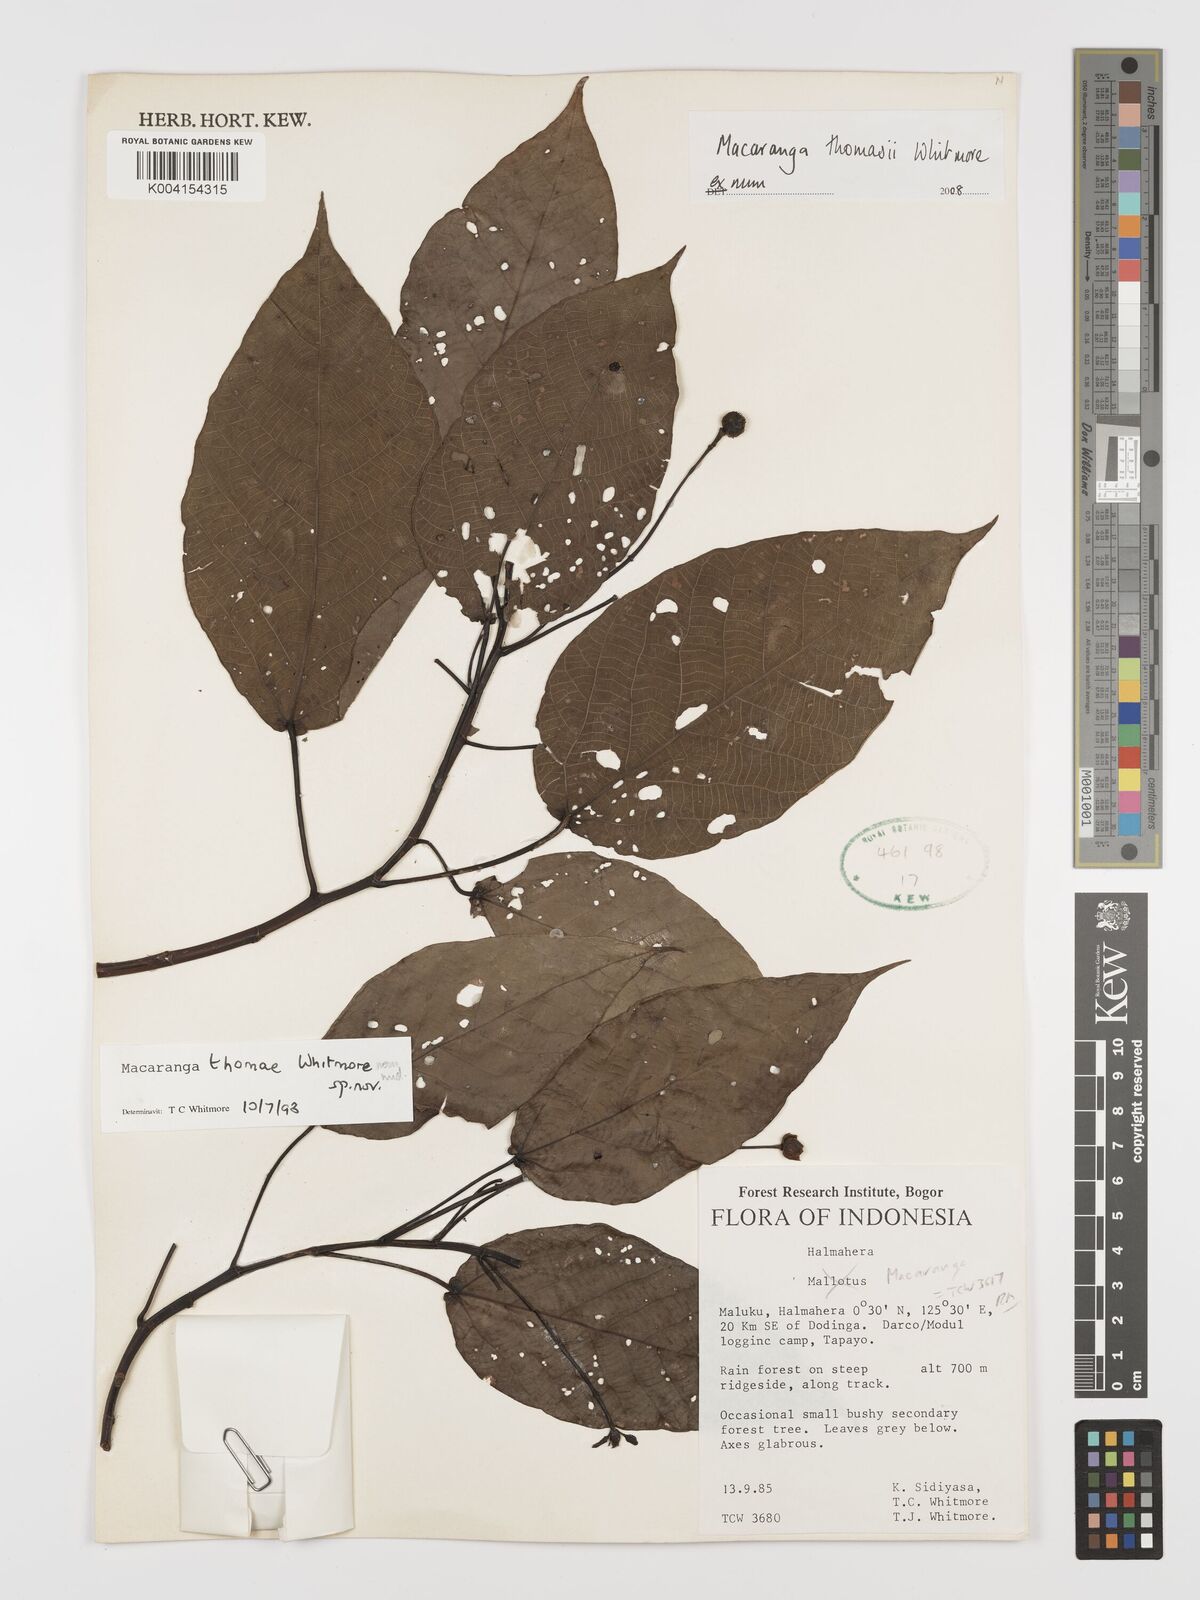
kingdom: Plantae
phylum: Tracheophyta
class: Magnoliopsida
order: Malpighiales
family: Euphorbiaceae
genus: Macaranga
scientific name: Macaranga thomasii
